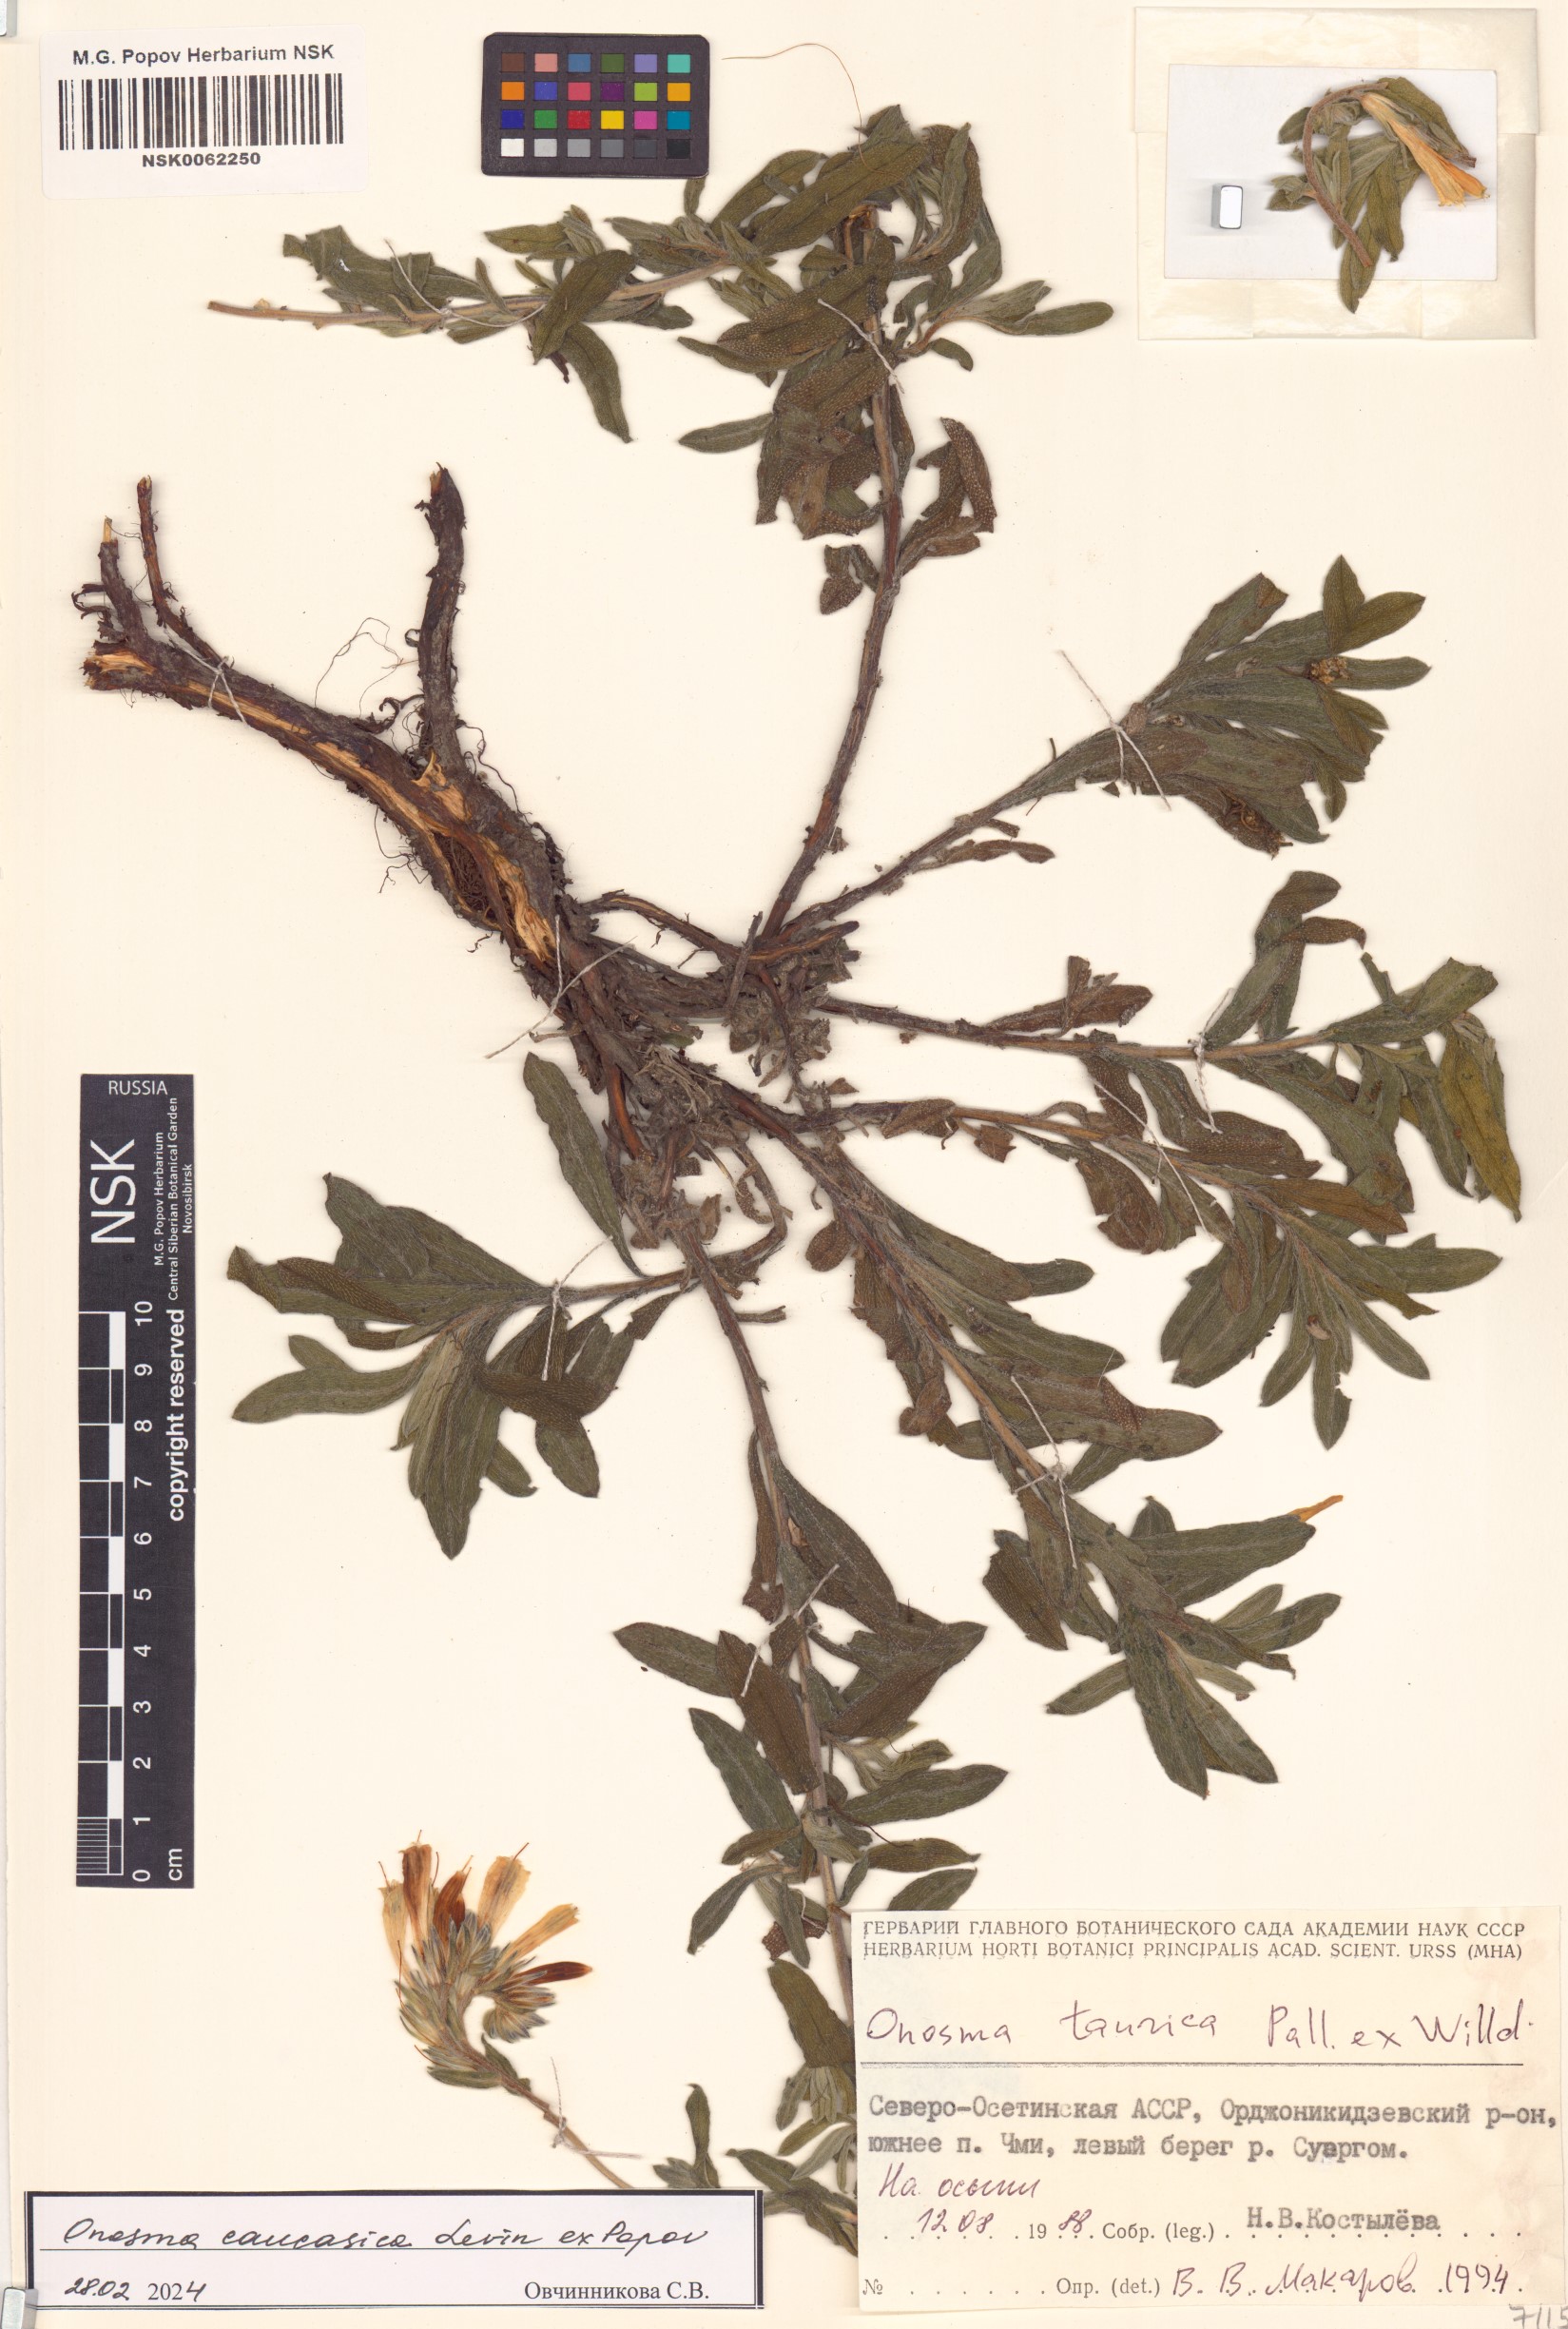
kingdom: Plantae
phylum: Tracheophyta
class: Magnoliopsida
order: Boraginales
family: Boraginaceae
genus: Onosma
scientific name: Onosma cinerea
